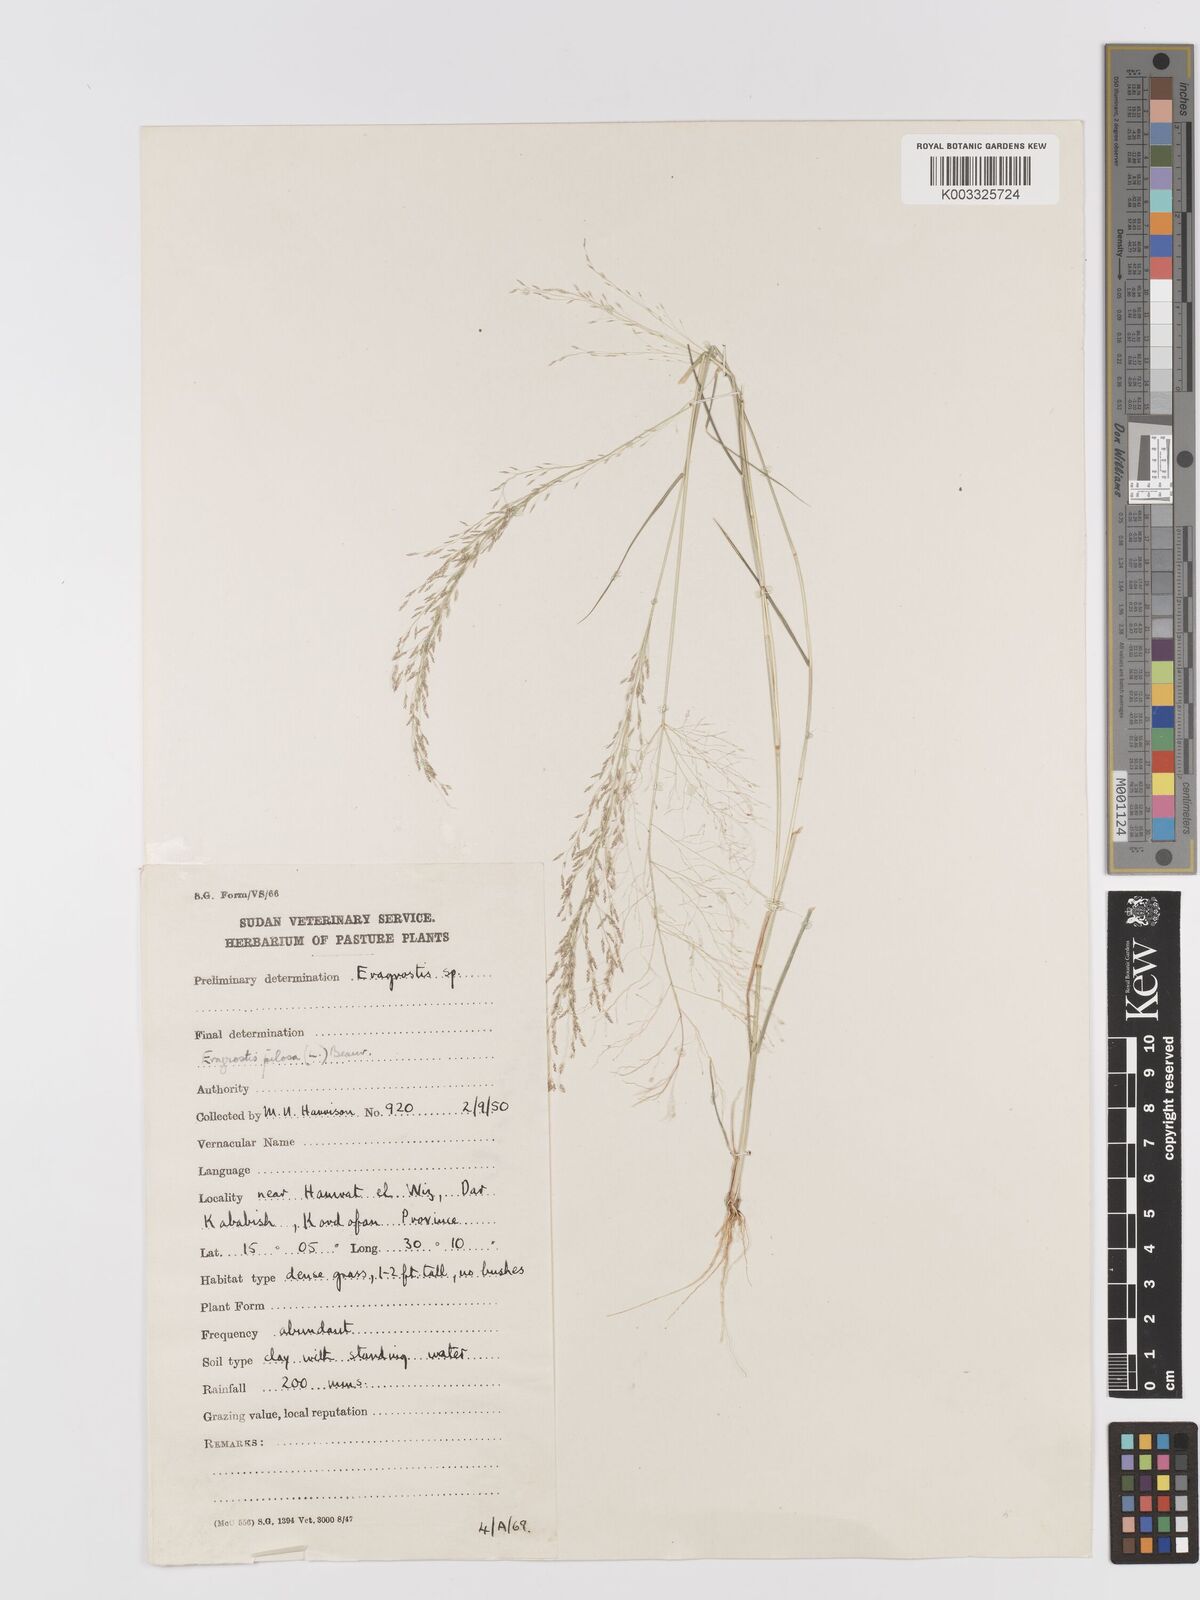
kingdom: Plantae
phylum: Tracheophyta
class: Liliopsida
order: Poales
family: Poaceae
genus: Eragrostis
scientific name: Eragrostis pilosa
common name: Indian lovegrass
